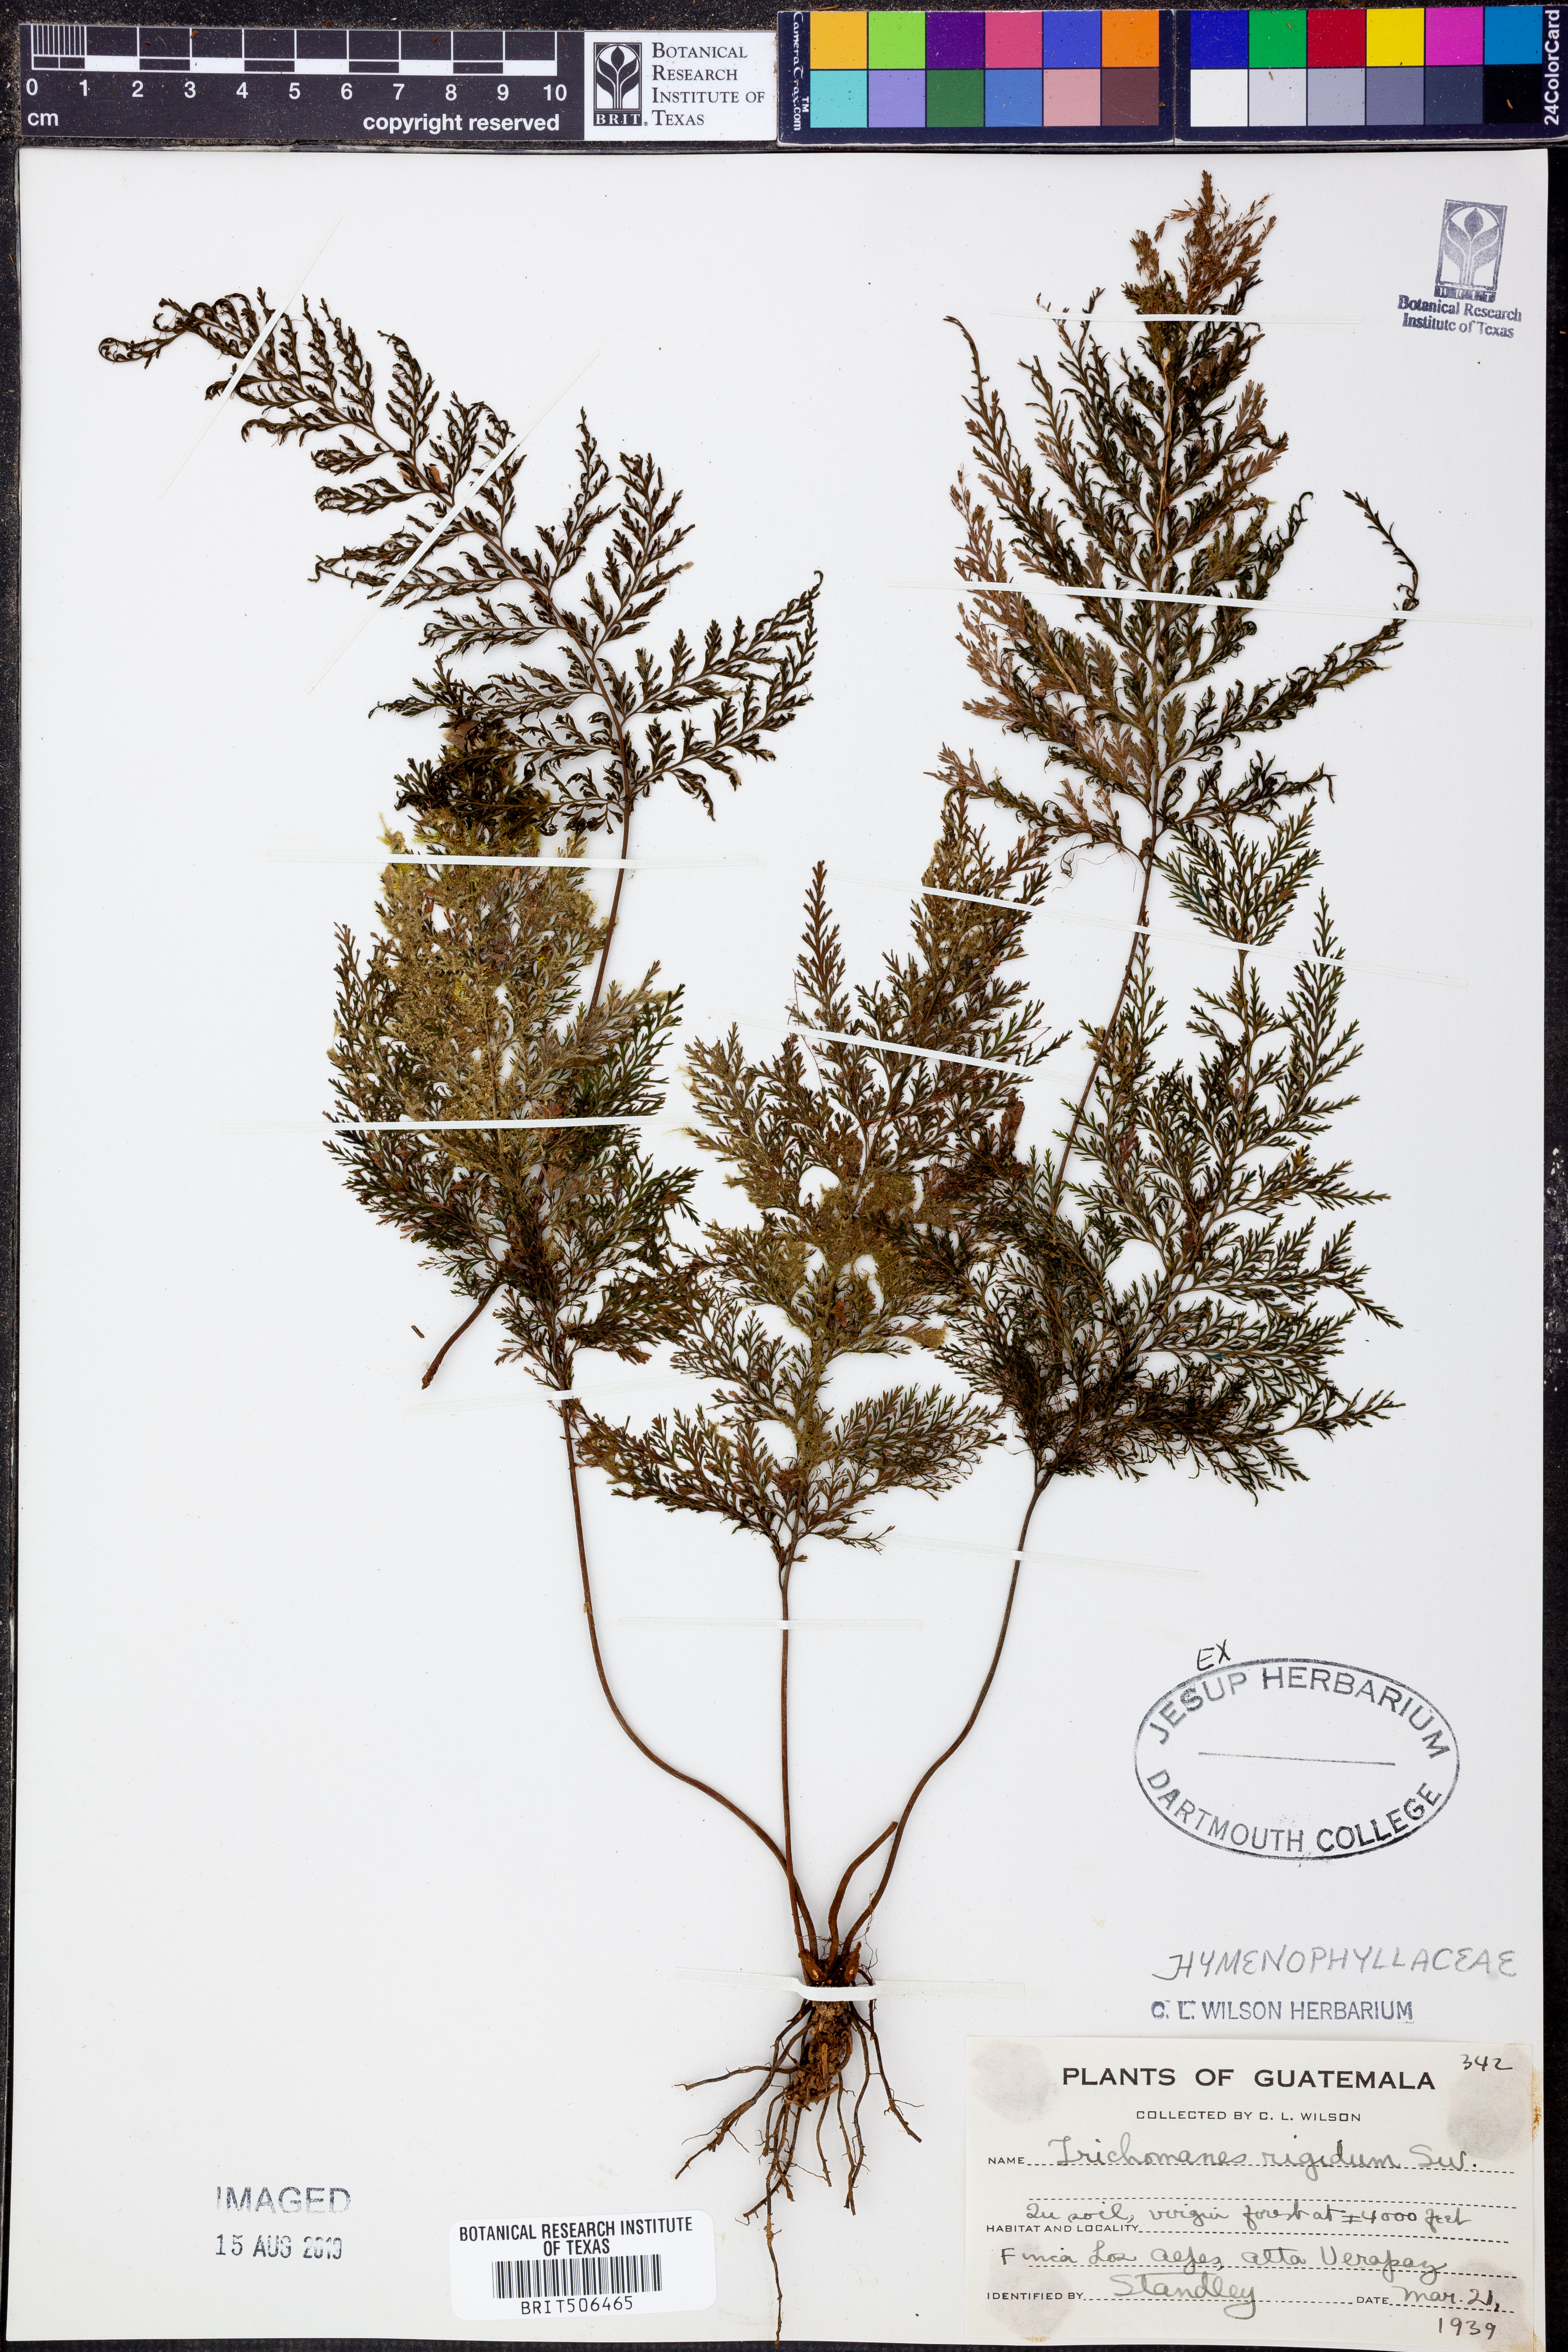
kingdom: Plantae
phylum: Tracheophyta
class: Polypodiopsida
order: Hymenophyllales
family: Hymenophyllaceae
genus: Abrodictyum
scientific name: Abrodictyum rigidum
